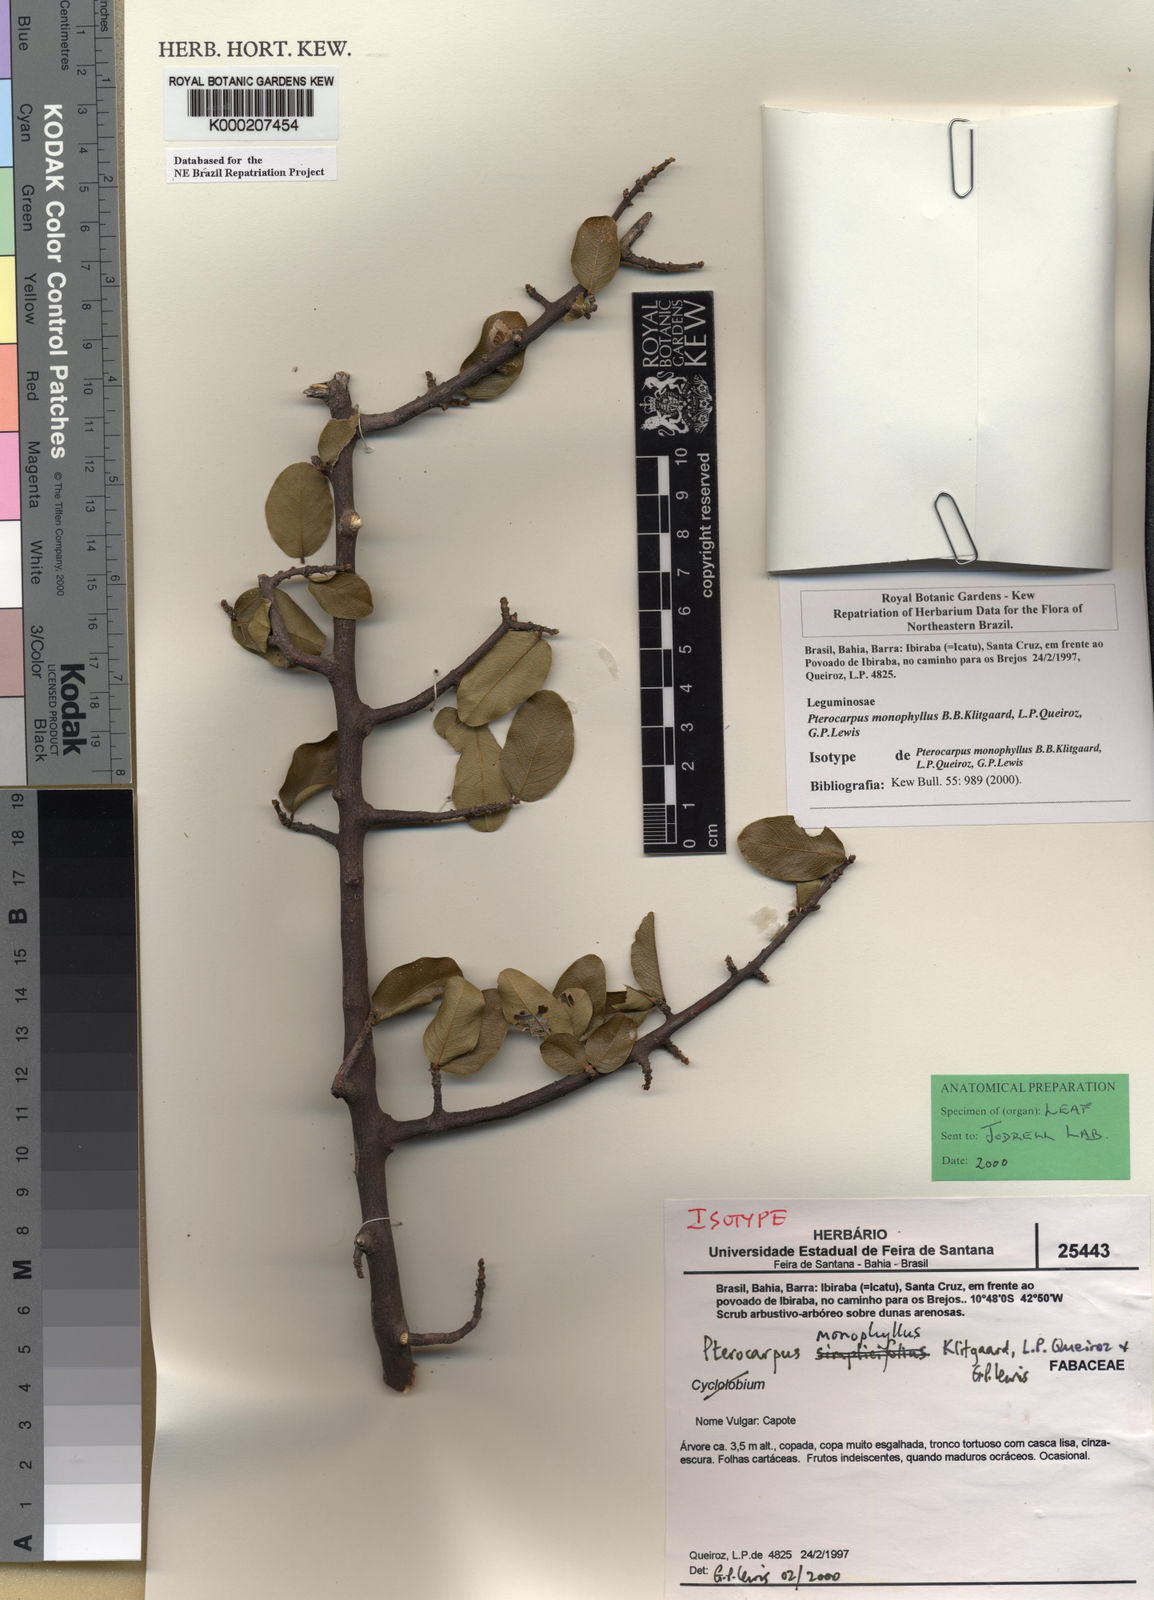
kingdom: Plantae
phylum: Tracheophyta
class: Magnoliopsida
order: Fabales
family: Fabaceae
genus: Pterocarpus
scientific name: Pterocarpus
